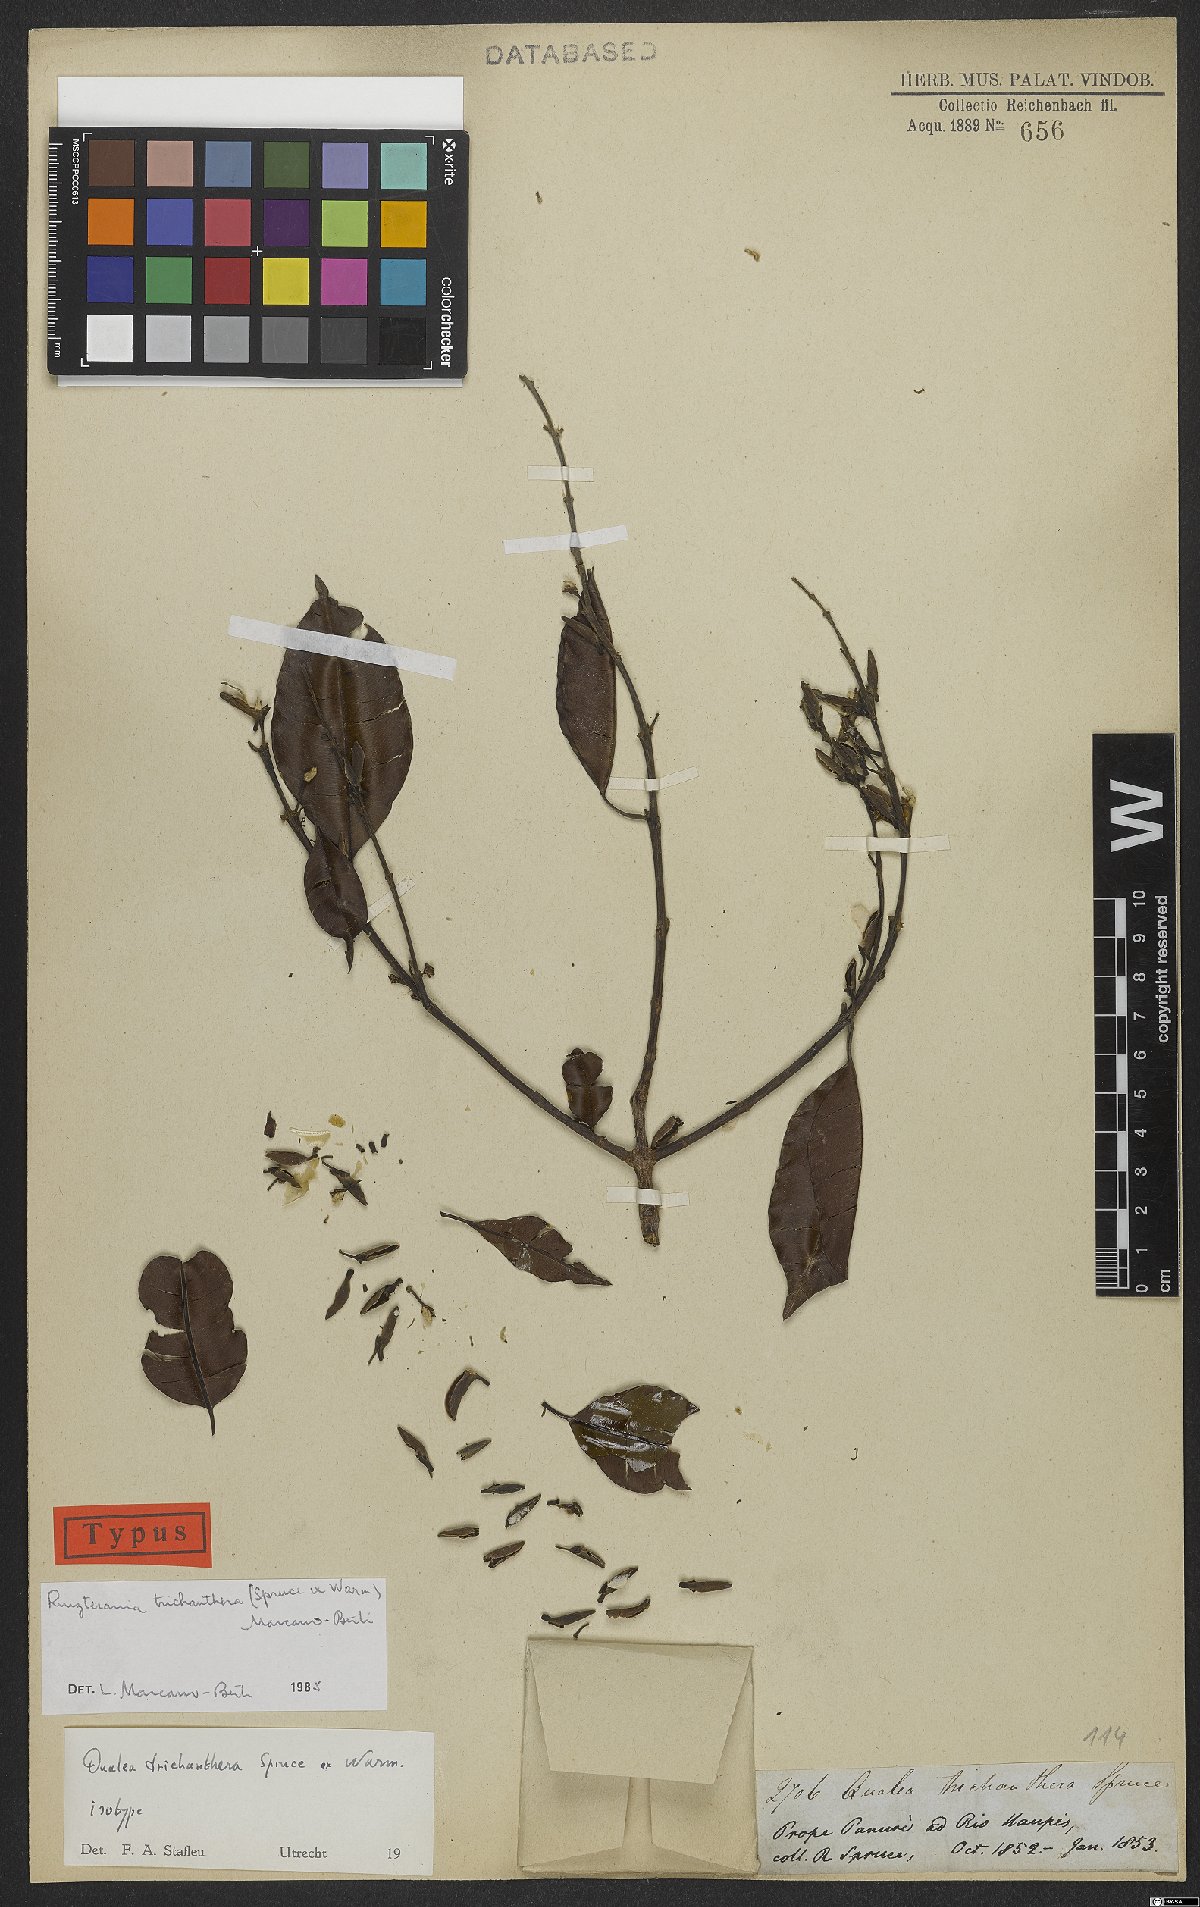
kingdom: Plantae
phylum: Tracheophyta
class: Magnoliopsida
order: Myrtales
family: Vochysiaceae
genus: Ruizterania
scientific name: Ruizterania trichanthera
